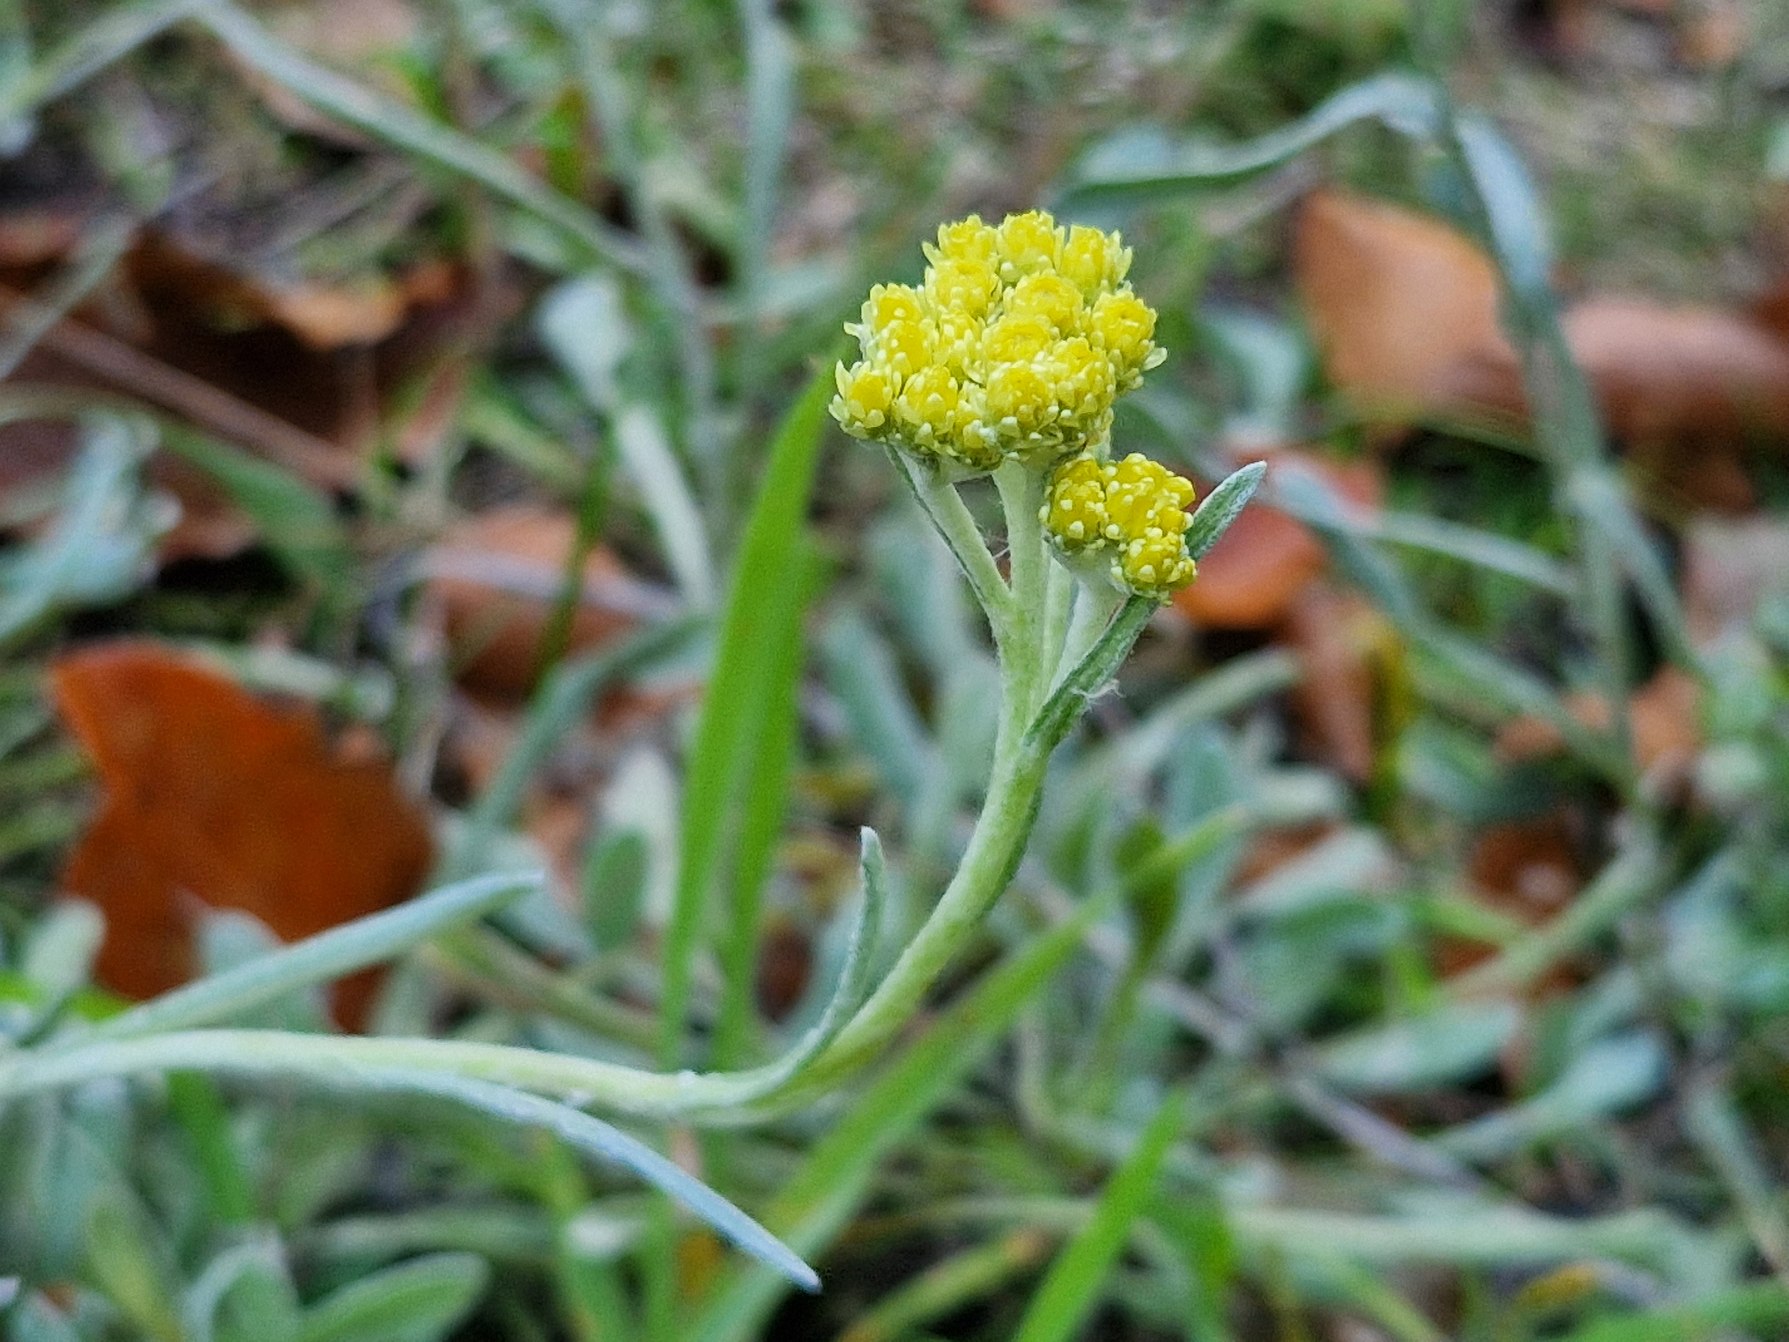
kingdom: Plantae
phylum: Tracheophyta
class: Magnoliopsida
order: Asterales
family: Asteraceae
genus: Helichrysum
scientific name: Helichrysum arenarium
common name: Gul evighedsblomst
